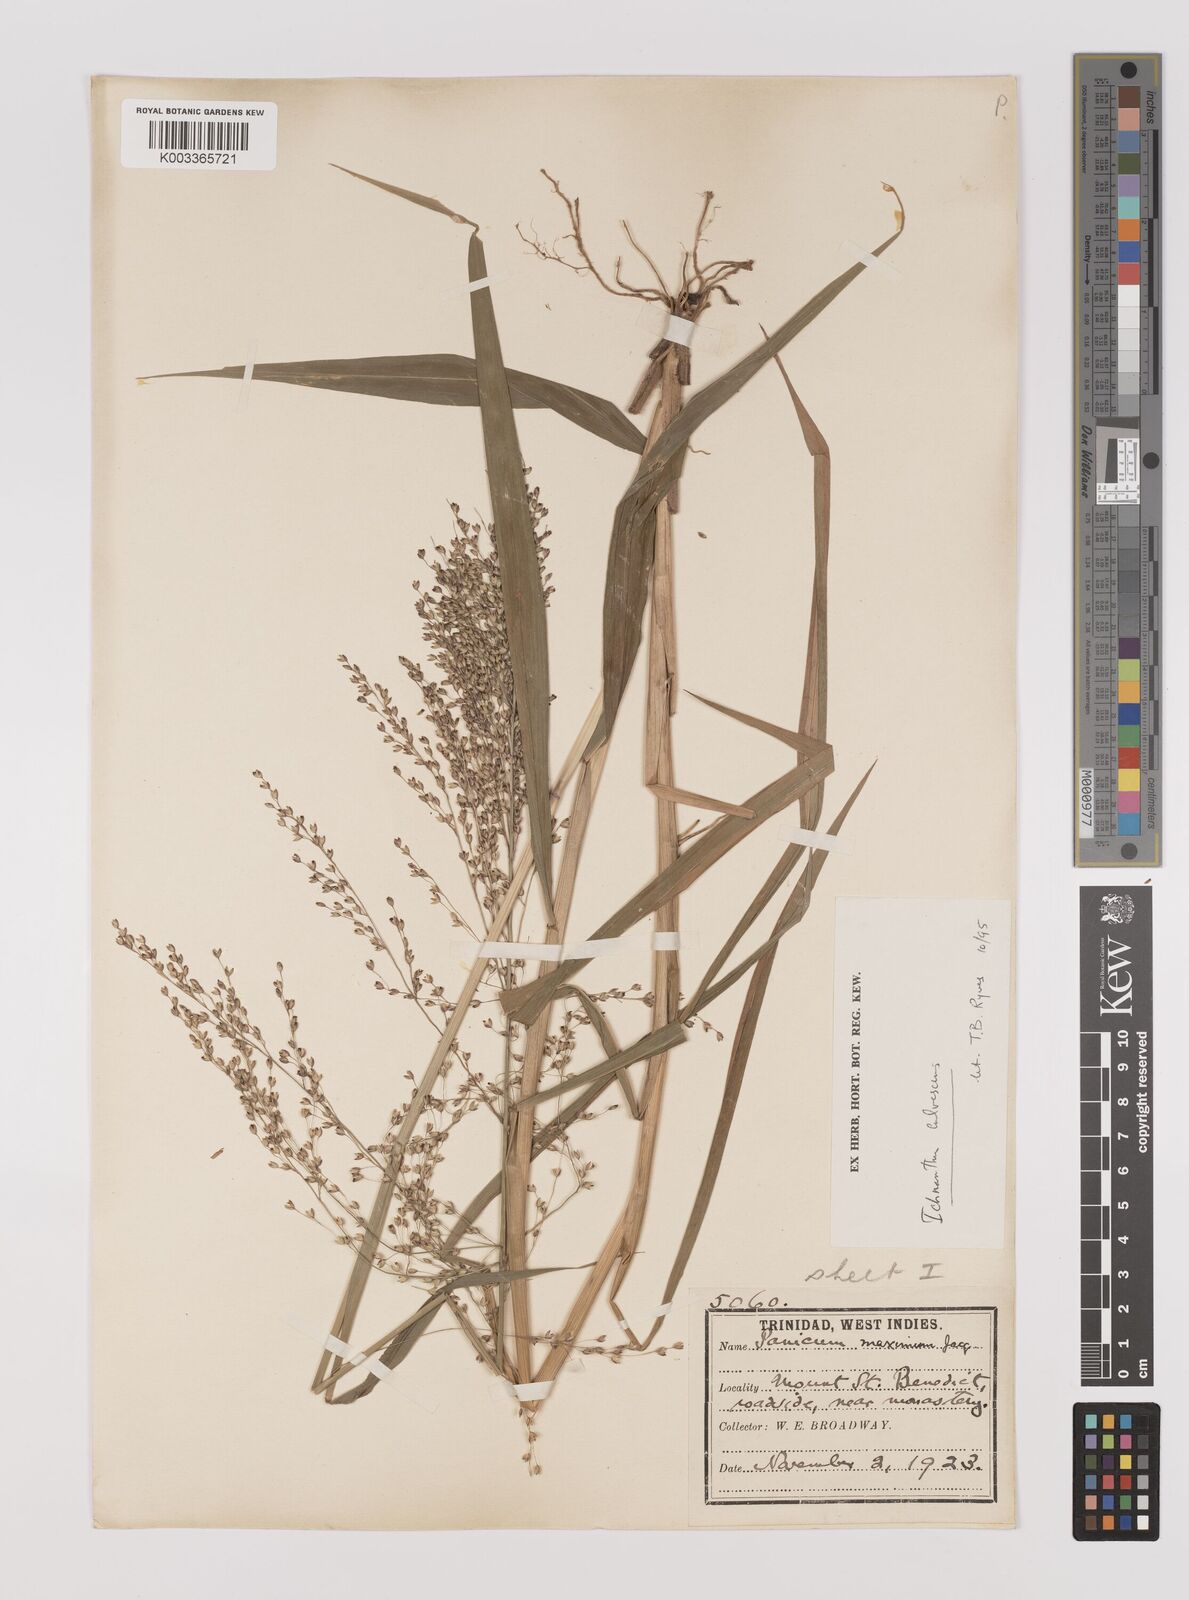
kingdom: Plantae
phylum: Tracheophyta
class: Liliopsida
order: Poales
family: Poaceae
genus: Ichnanthus
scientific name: Ichnanthus calvescens
